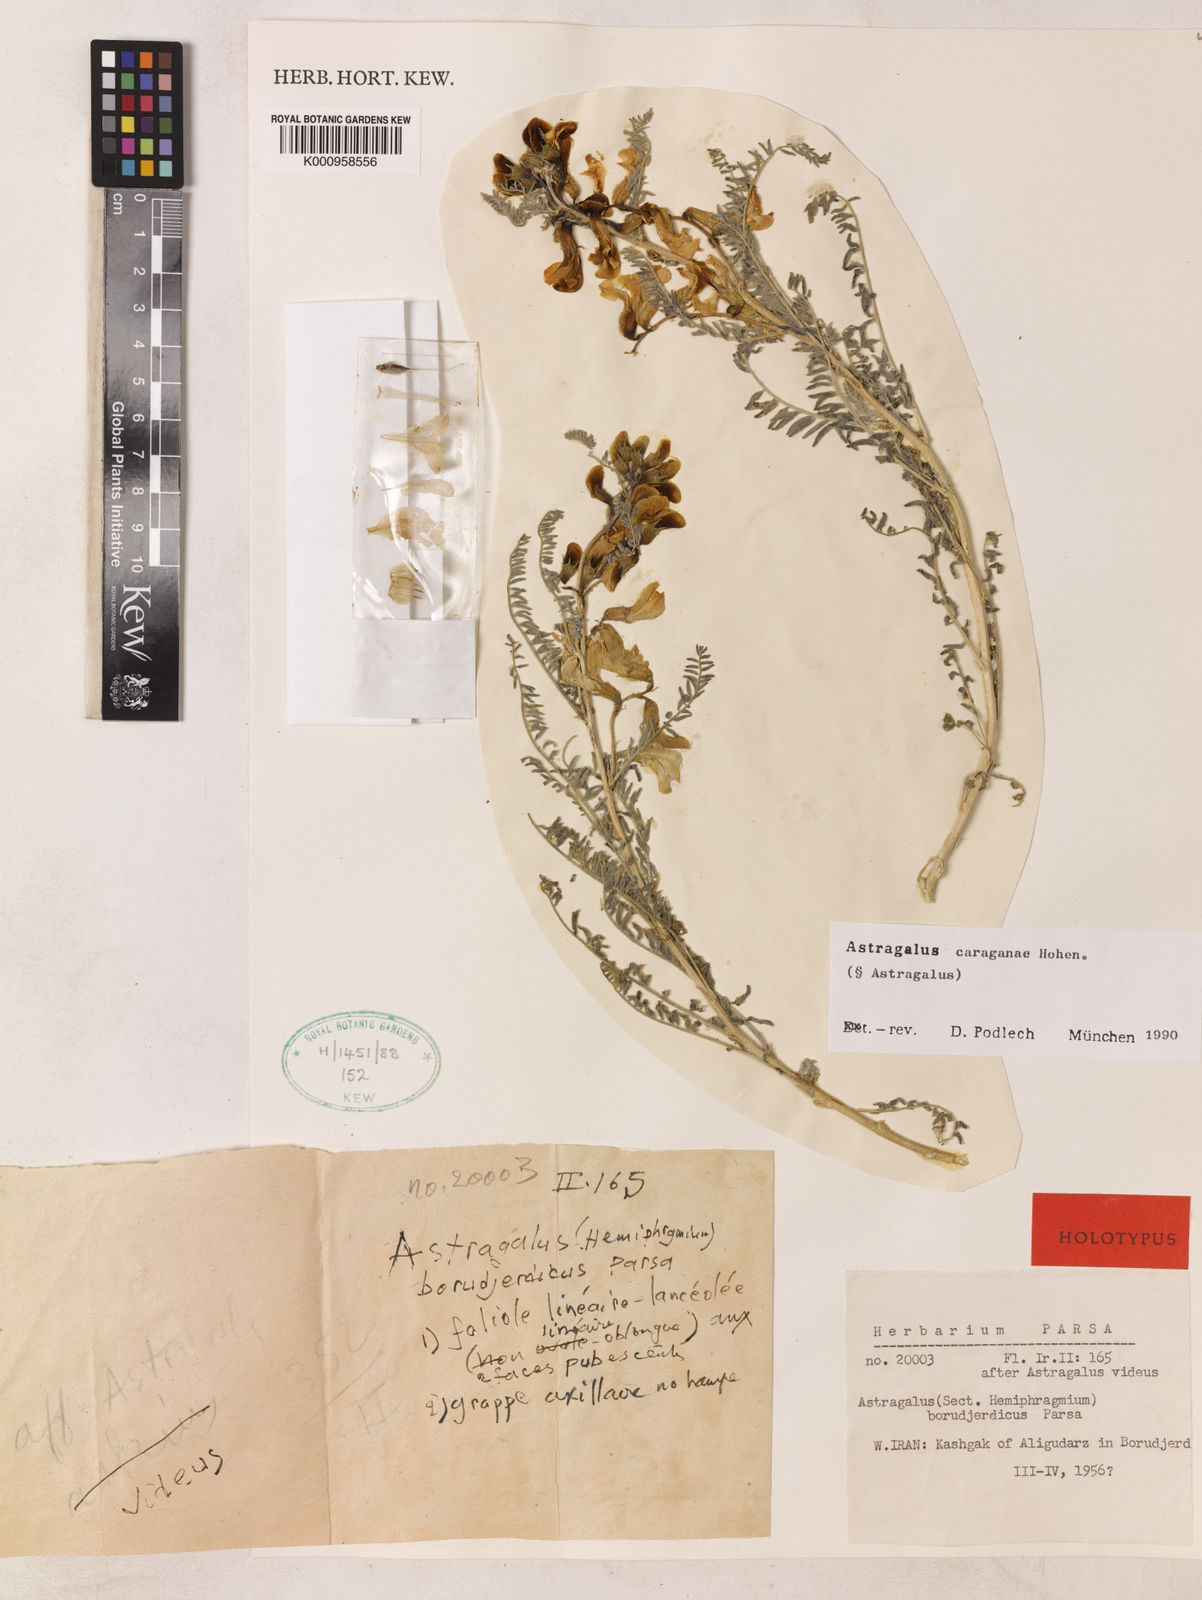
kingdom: Plantae
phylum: Tracheophyta
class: Magnoliopsida
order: Fabales
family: Fabaceae
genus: Astragalus
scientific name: Astragalus
